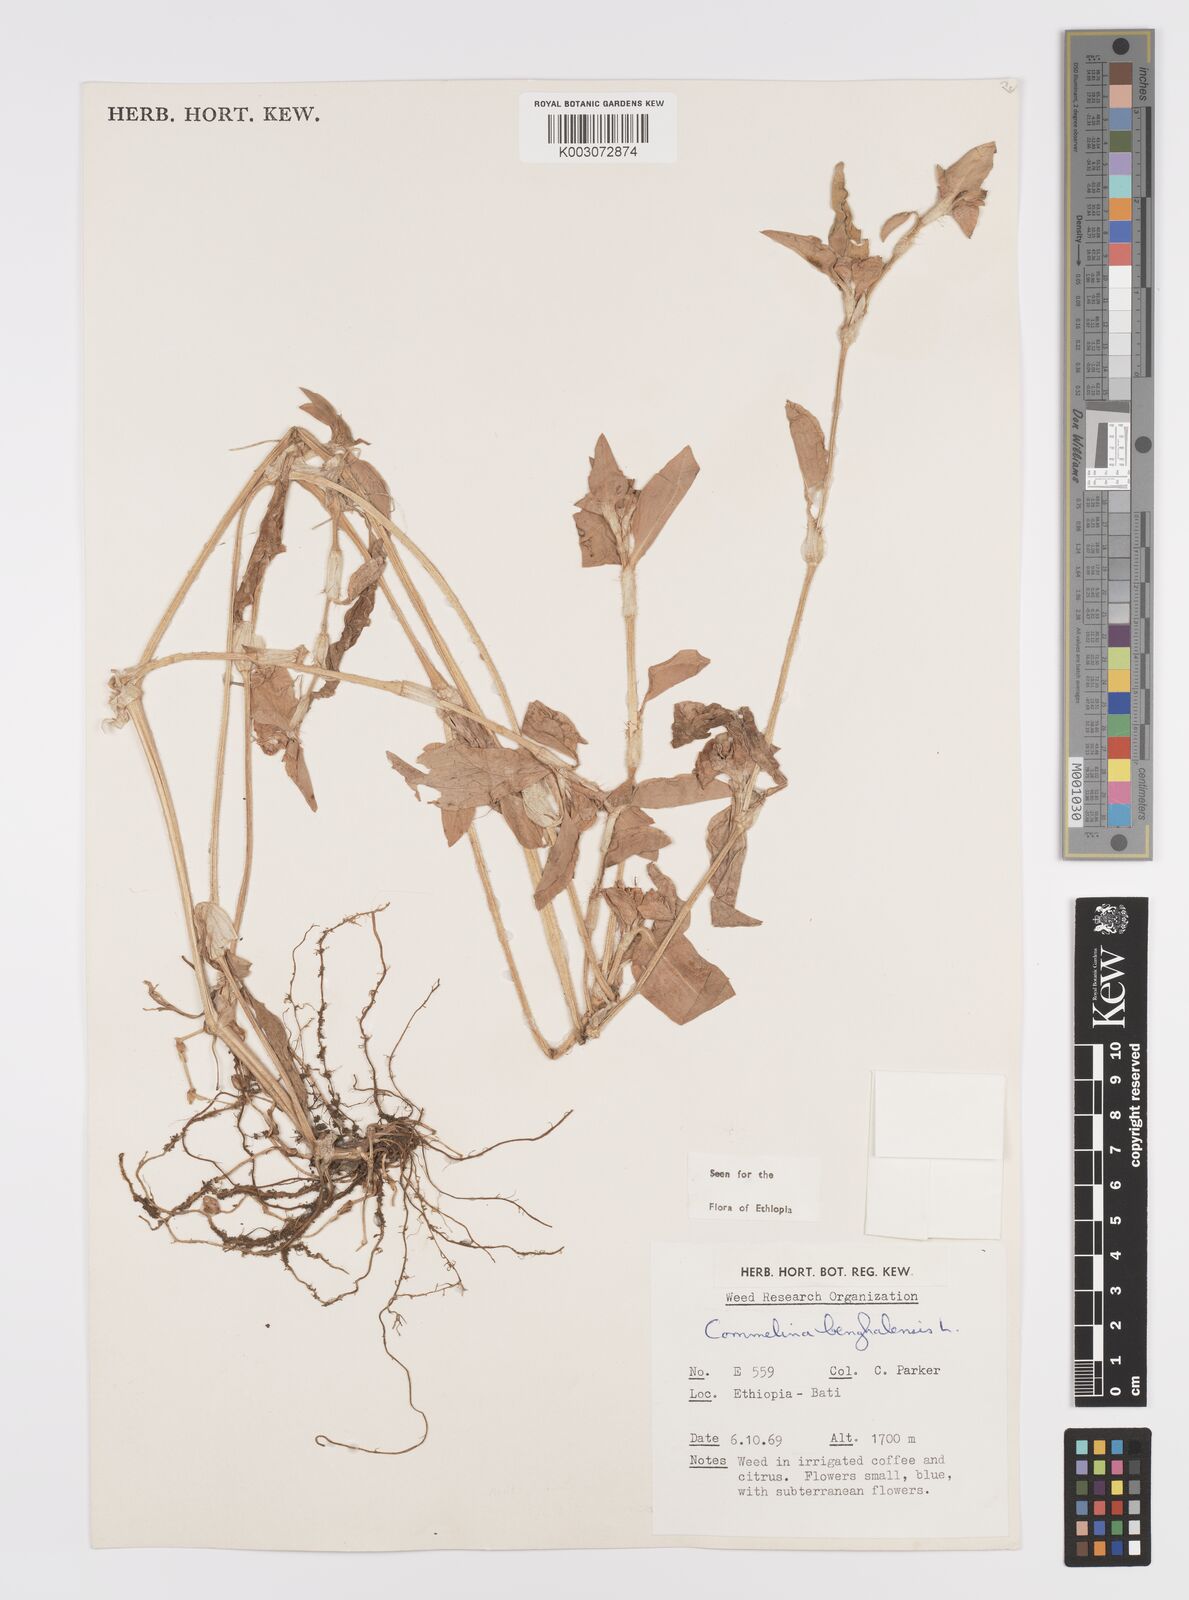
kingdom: Plantae
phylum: Tracheophyta
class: Liliopsida
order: Commelinales
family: Commelinaceae
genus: Commelina
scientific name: Commelina benghalensis
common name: Jio
